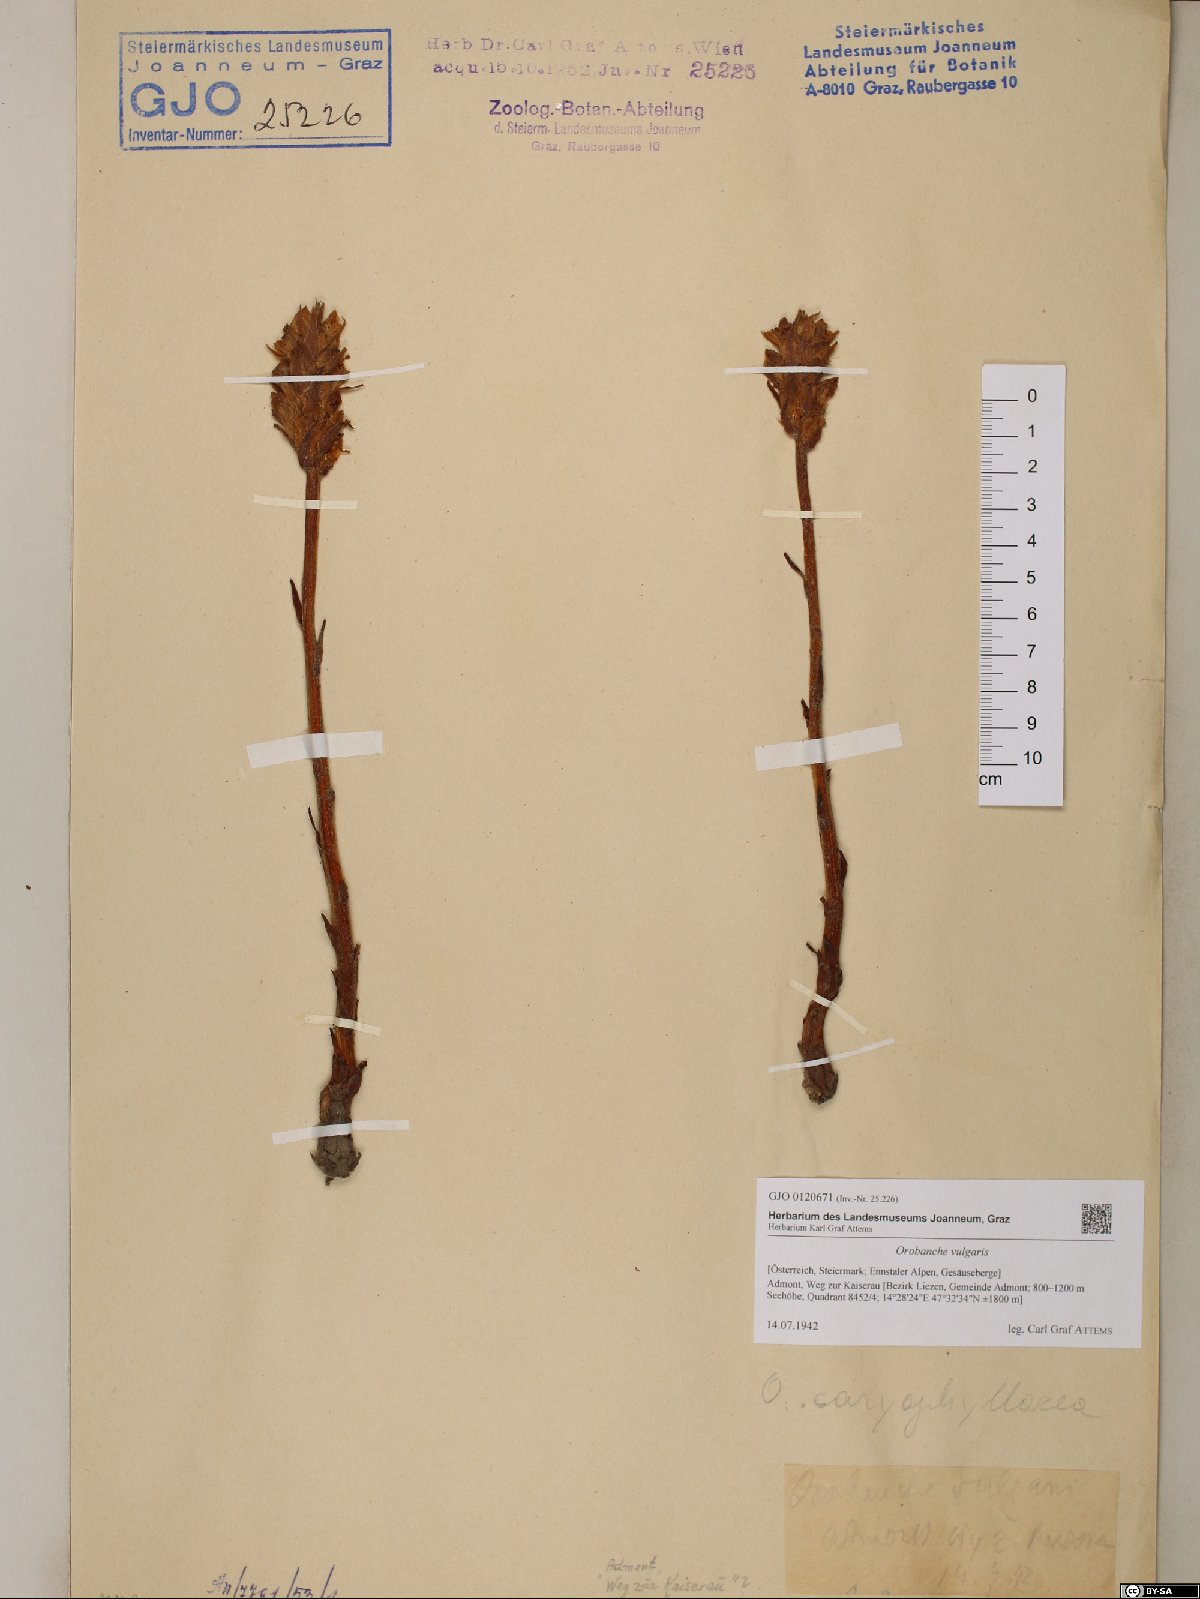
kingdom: Plantae
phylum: Tracheophyta
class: Magnoliopsida
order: Lamiales
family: Orobanchaceae
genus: Orobanche
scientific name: Orobanche caryophyllacea
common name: Bedstraw broomrape
